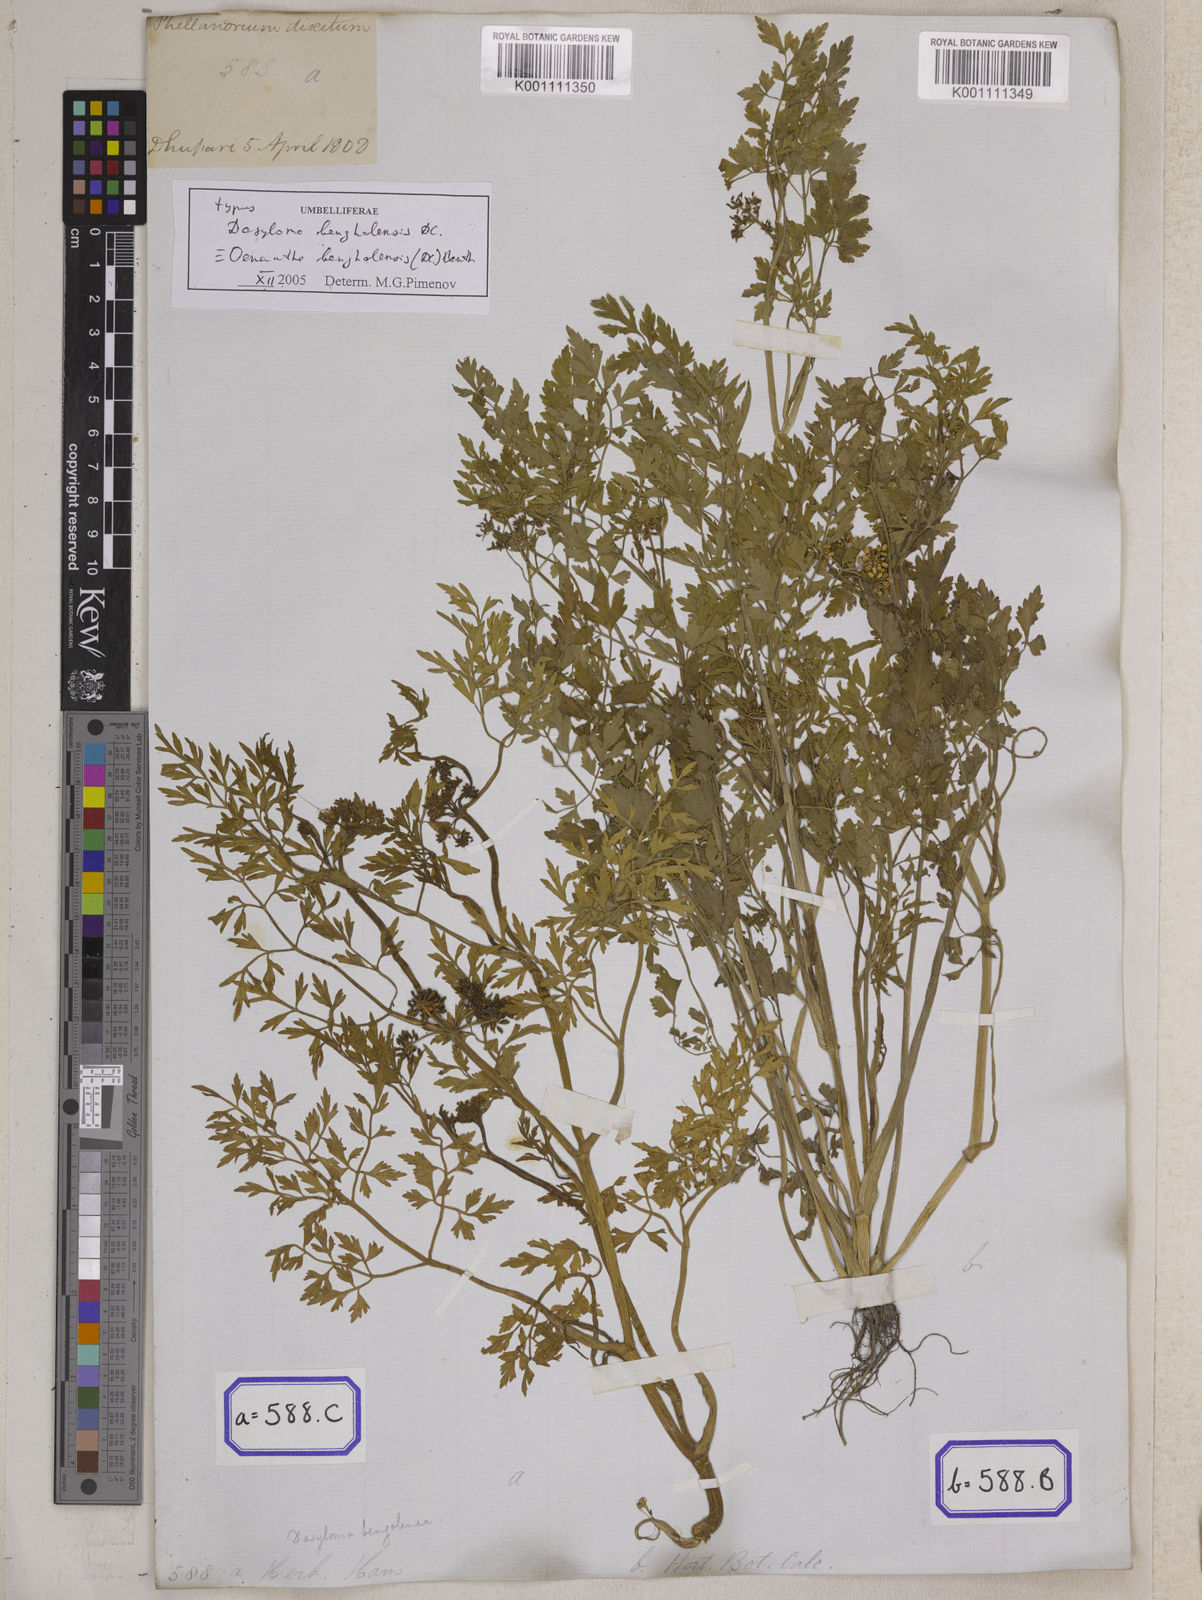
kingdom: Plantae
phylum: Tracheophyta
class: Magnoliopsida
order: Apiales
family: Apiaceae
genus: Bifora
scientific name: Bifora
